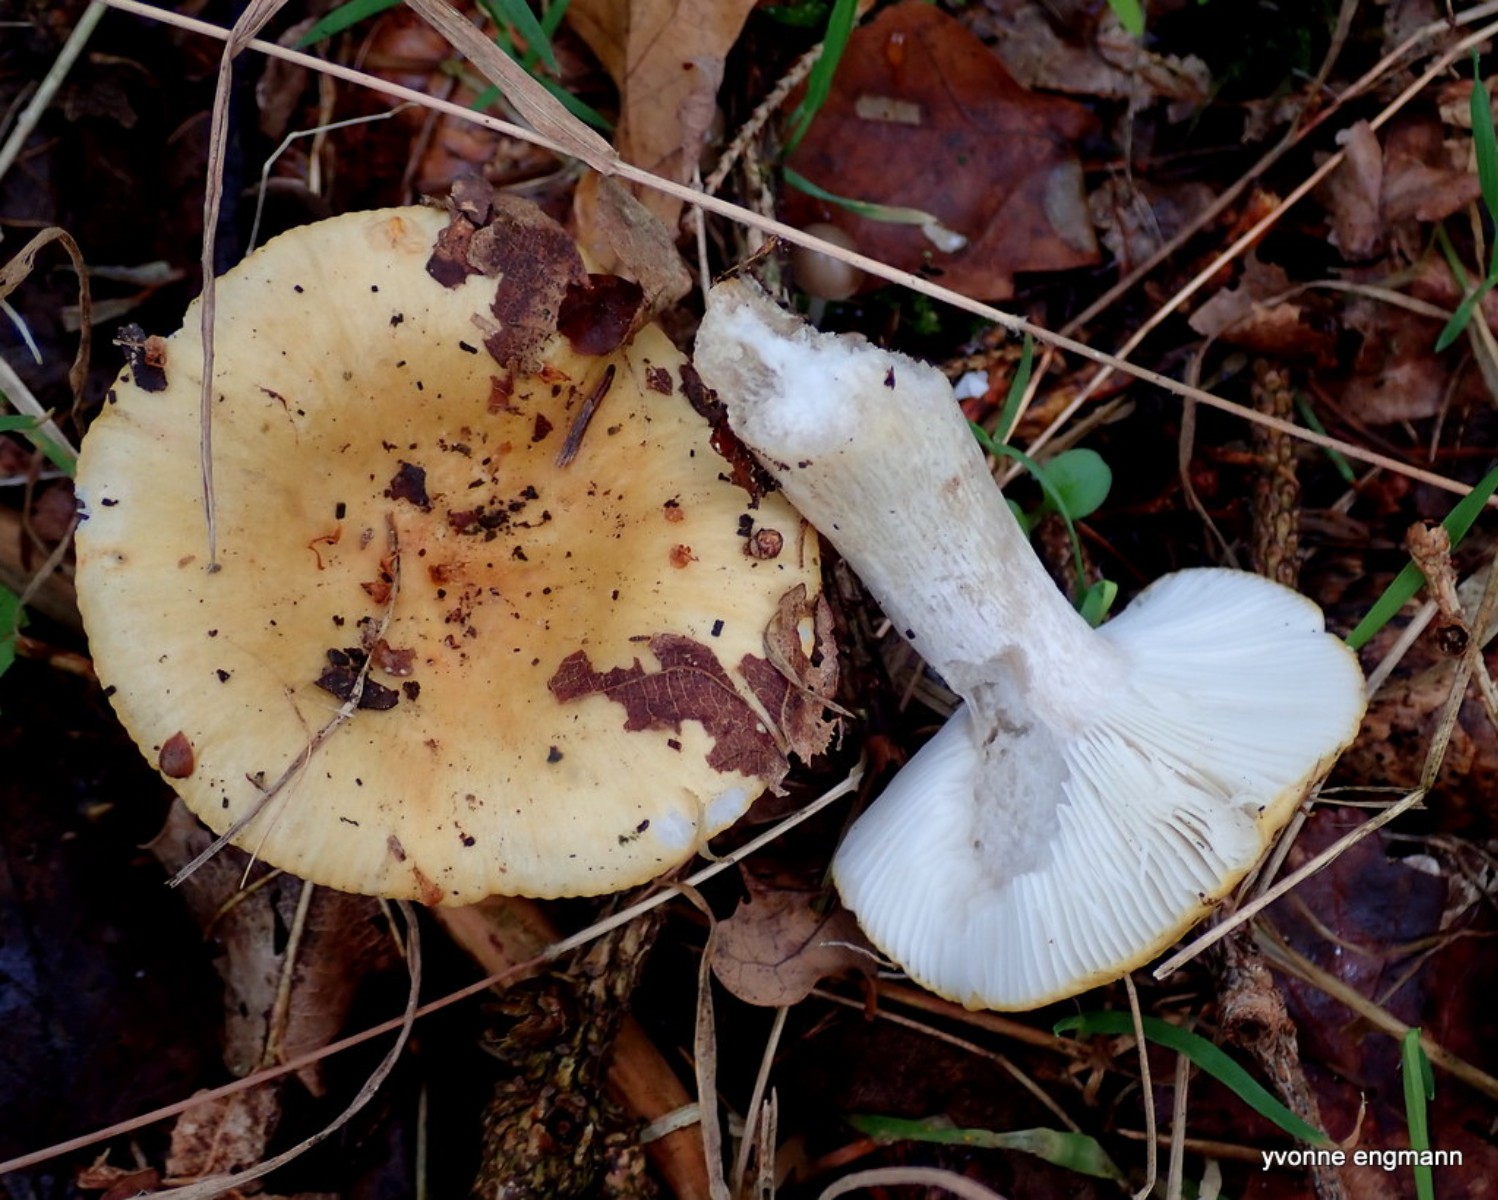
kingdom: Fungi
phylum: Basidiomycota
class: Agaricomycetes
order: Russulales
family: Russulaceae
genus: Russula
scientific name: Russula ochroleuca
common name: okkergul skørhat
